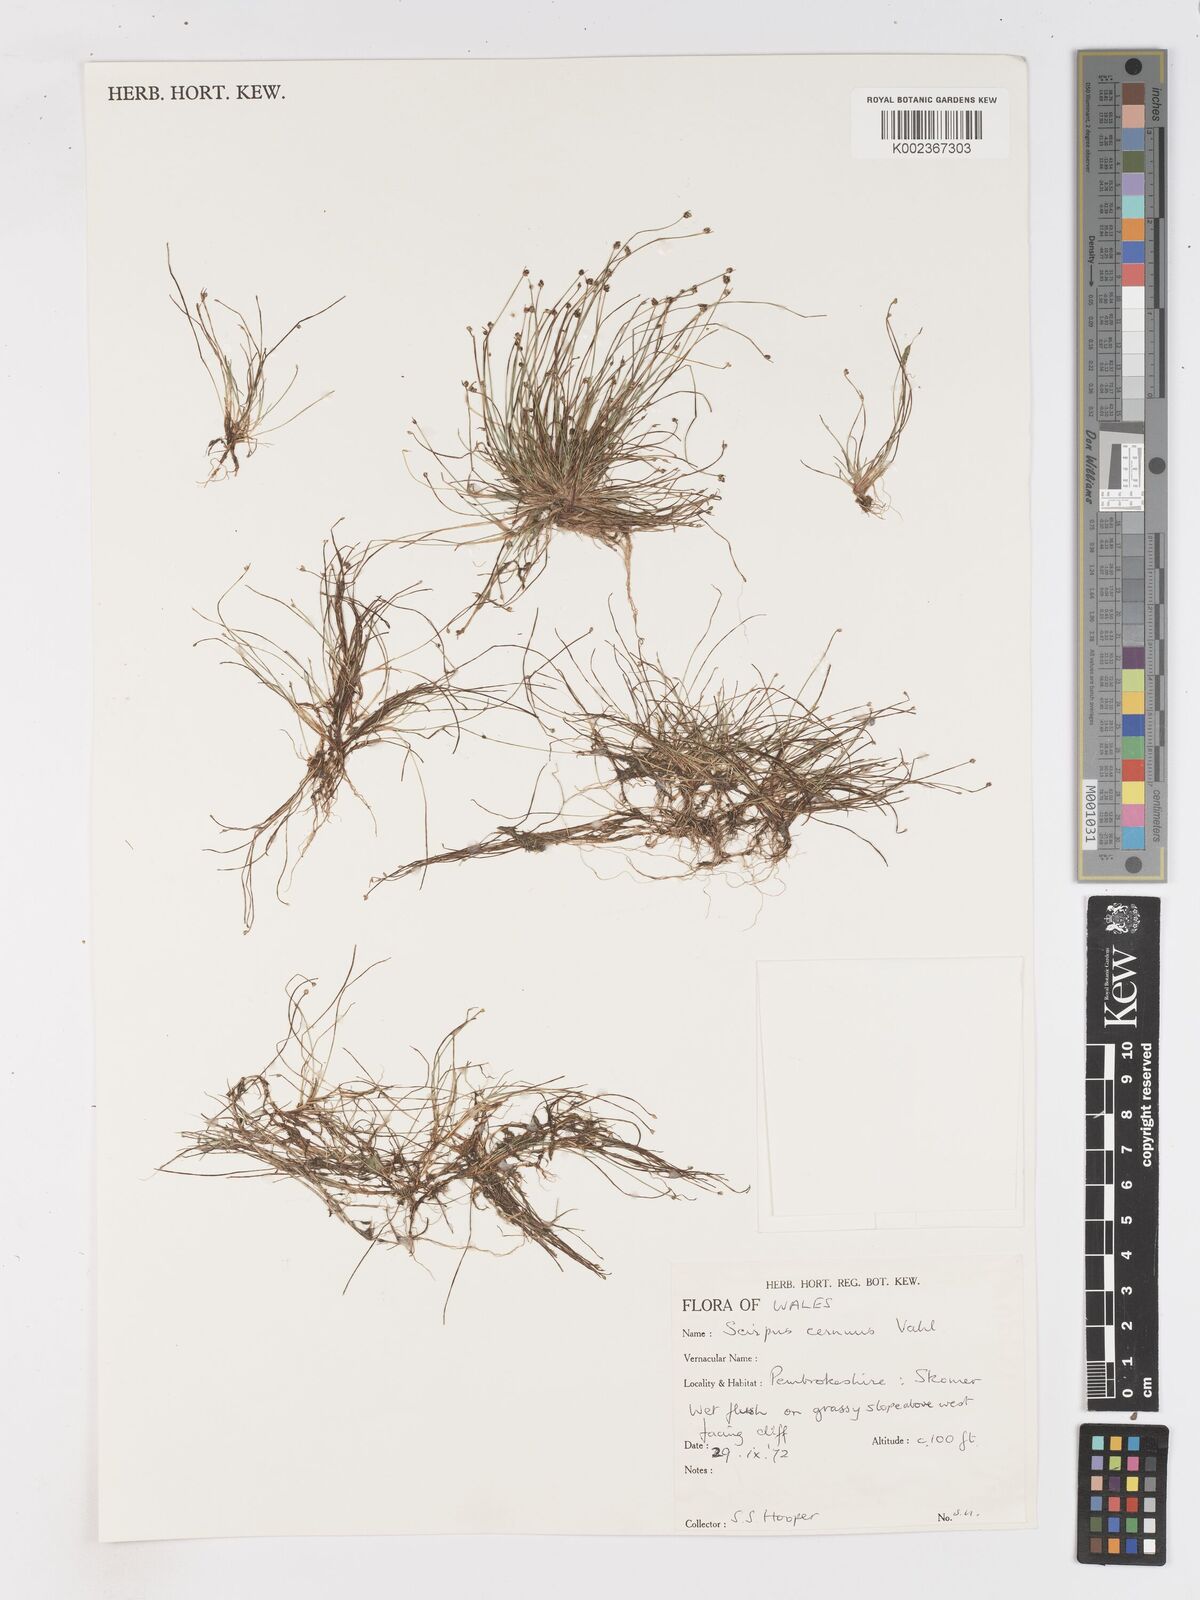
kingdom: Plantae
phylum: Tracheophyta
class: Liliopsida
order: Poales
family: Cyperaceae
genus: Isolepis
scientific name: Isolepis cernua
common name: Slender club-rush
